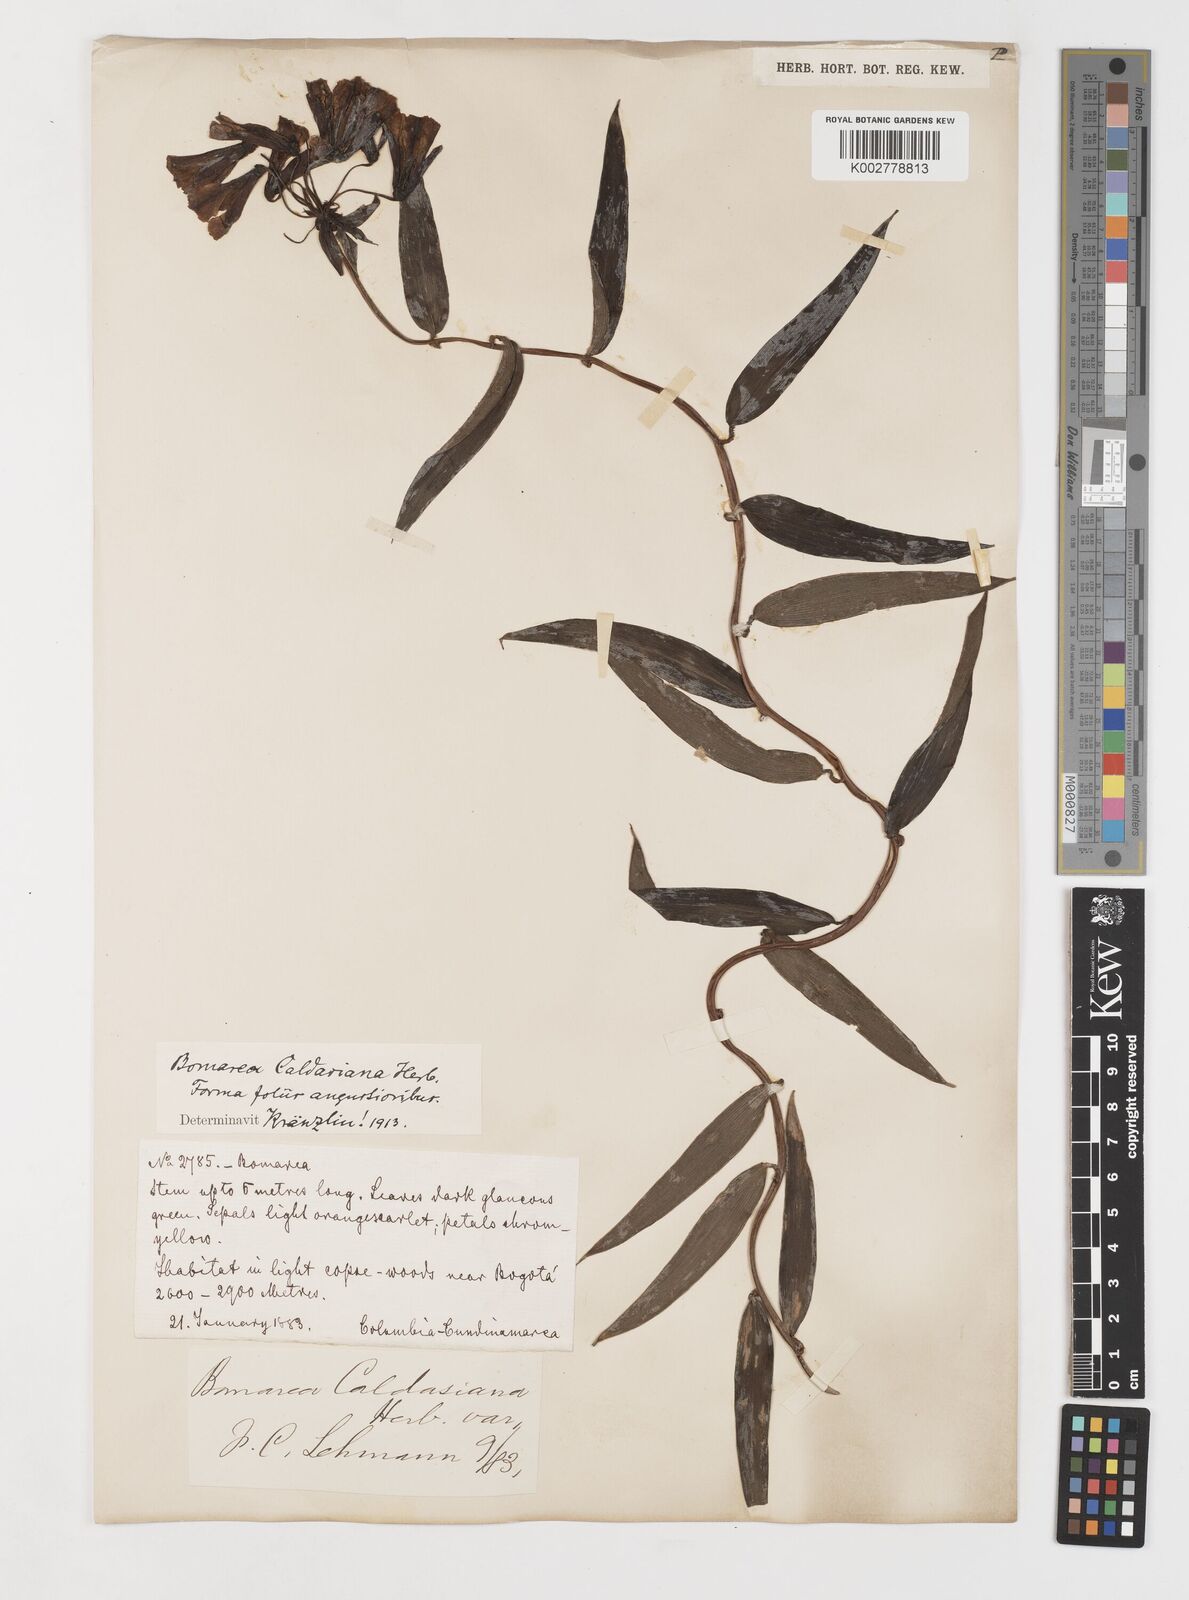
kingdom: Plantae
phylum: Tracheophyta
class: Liliopsida
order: Liliales
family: Alstroemeriaceae
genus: Bomarea
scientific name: Bomarea hirsuta
